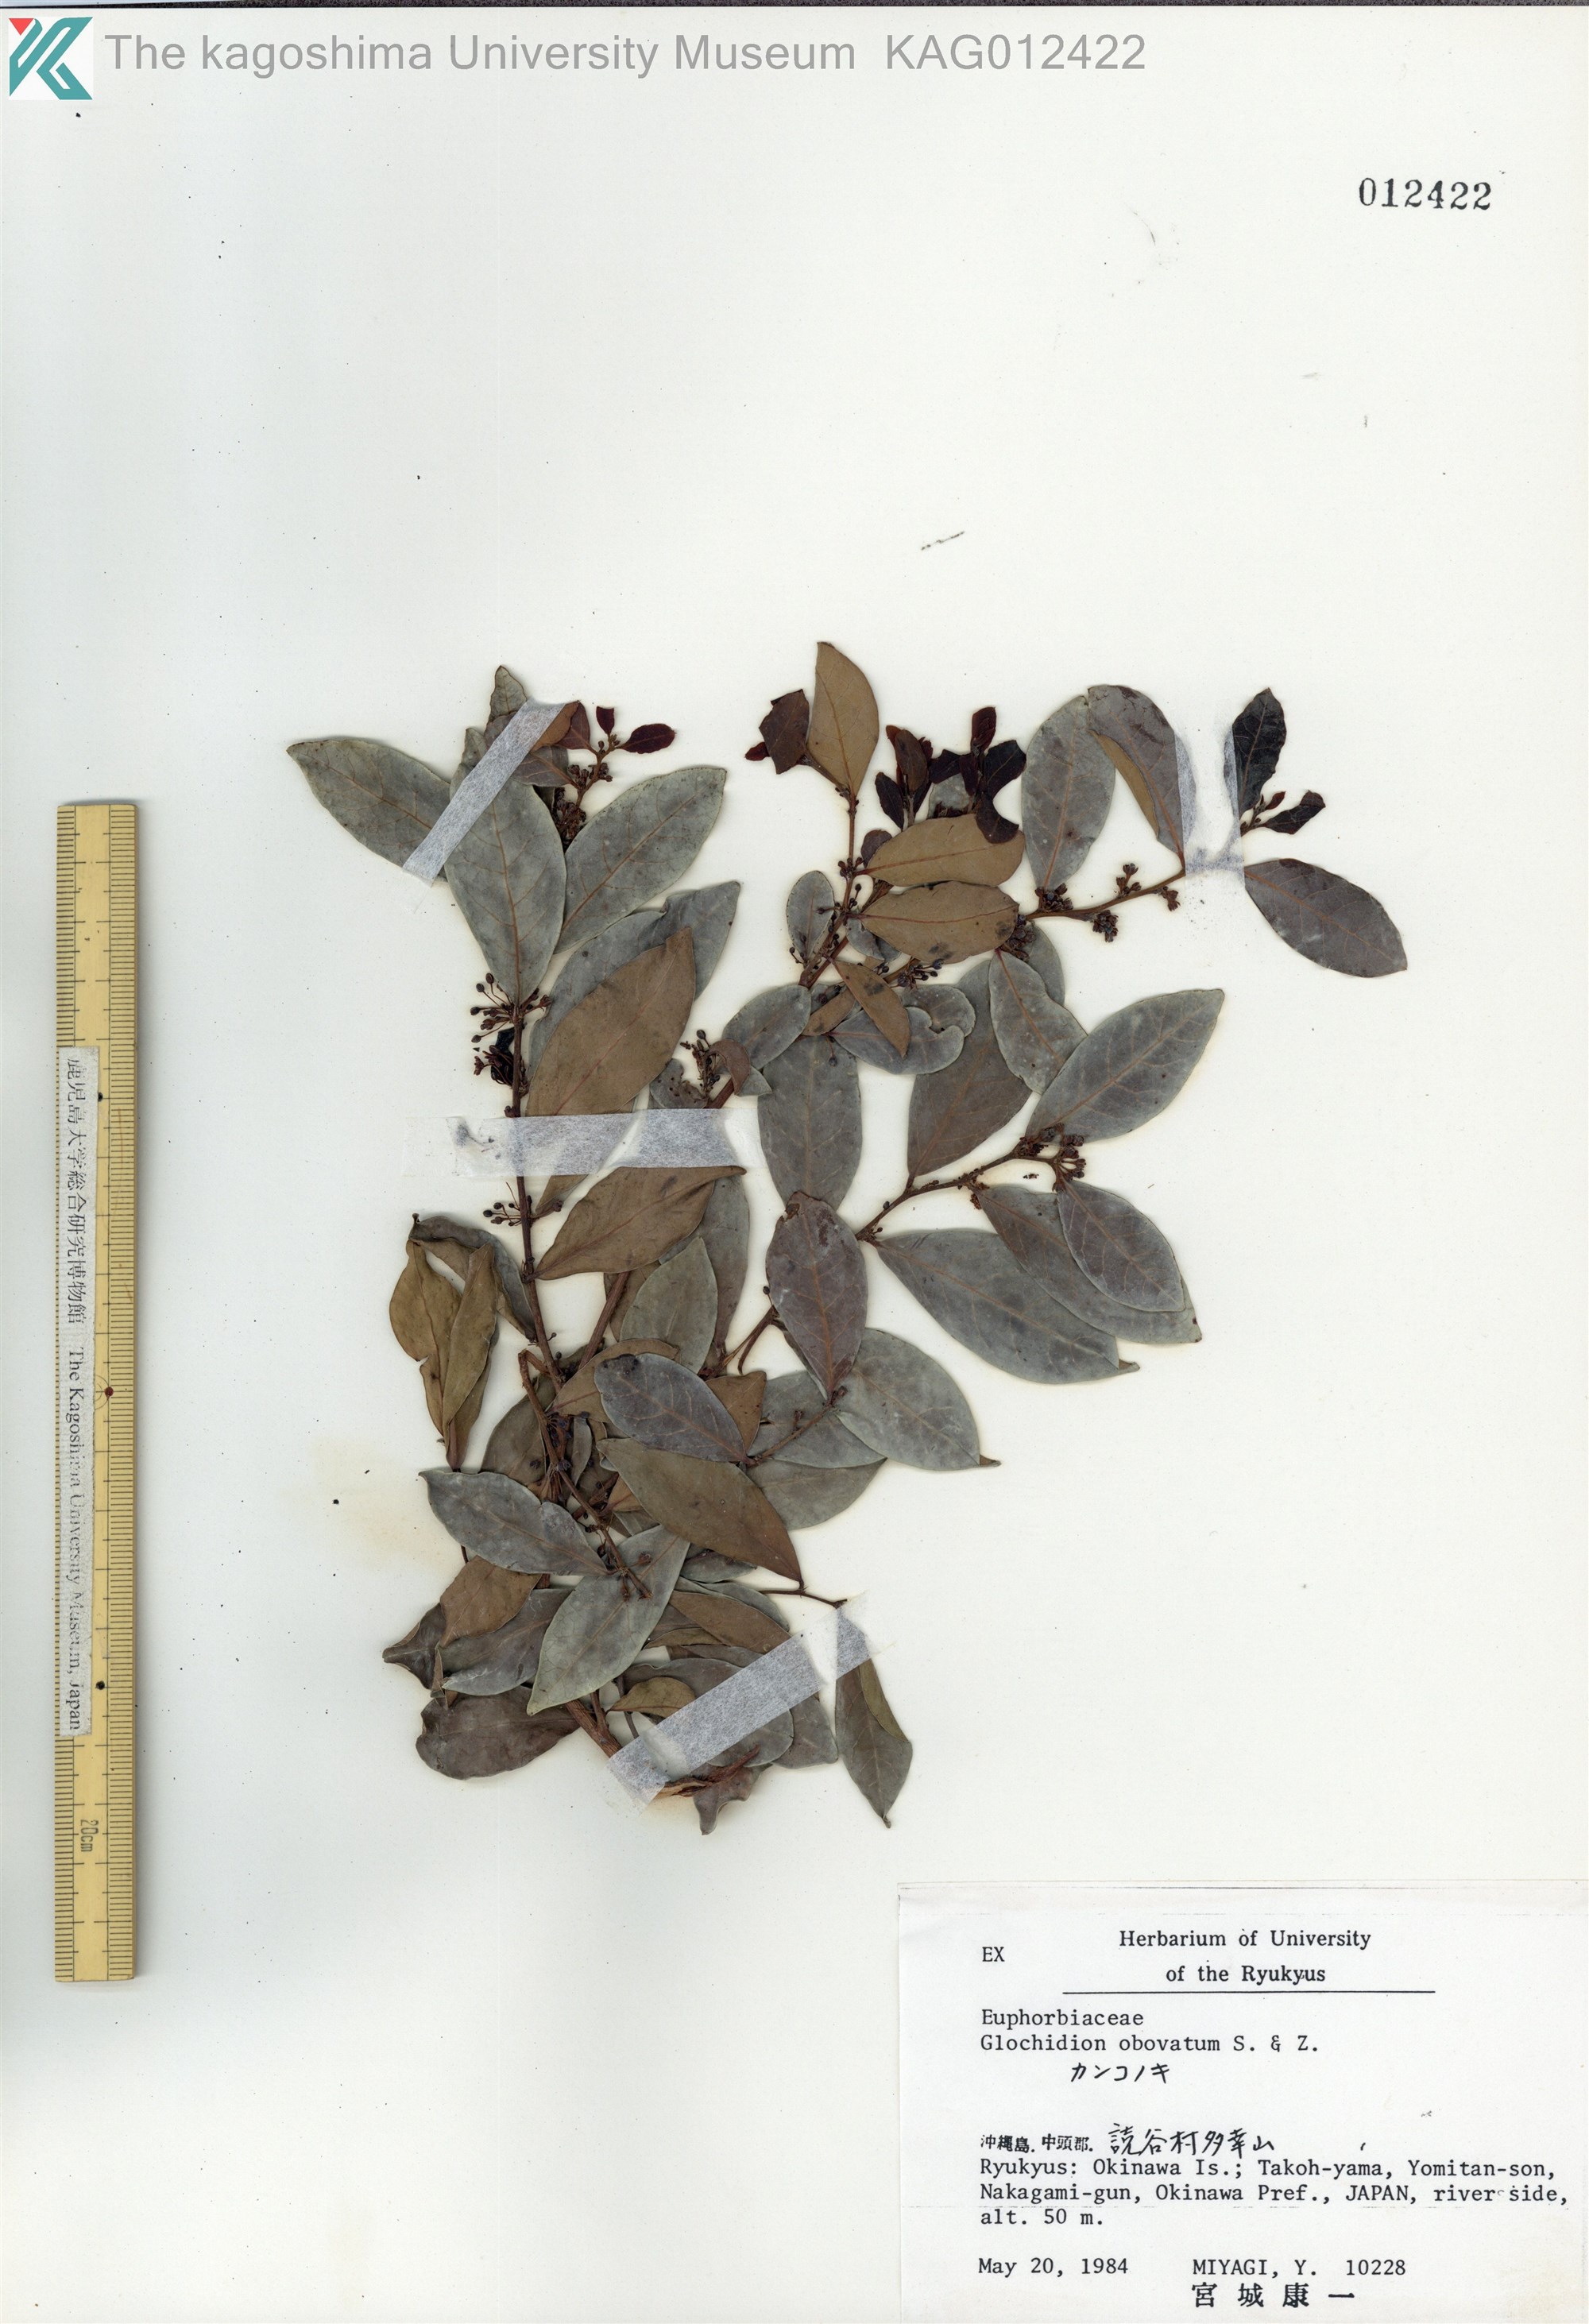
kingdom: Plantae
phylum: Tracheophyta
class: Magnoliopsida
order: Malpighiales
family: Phyllanthaceae
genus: Glochidion
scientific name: Glochidion obovatum
